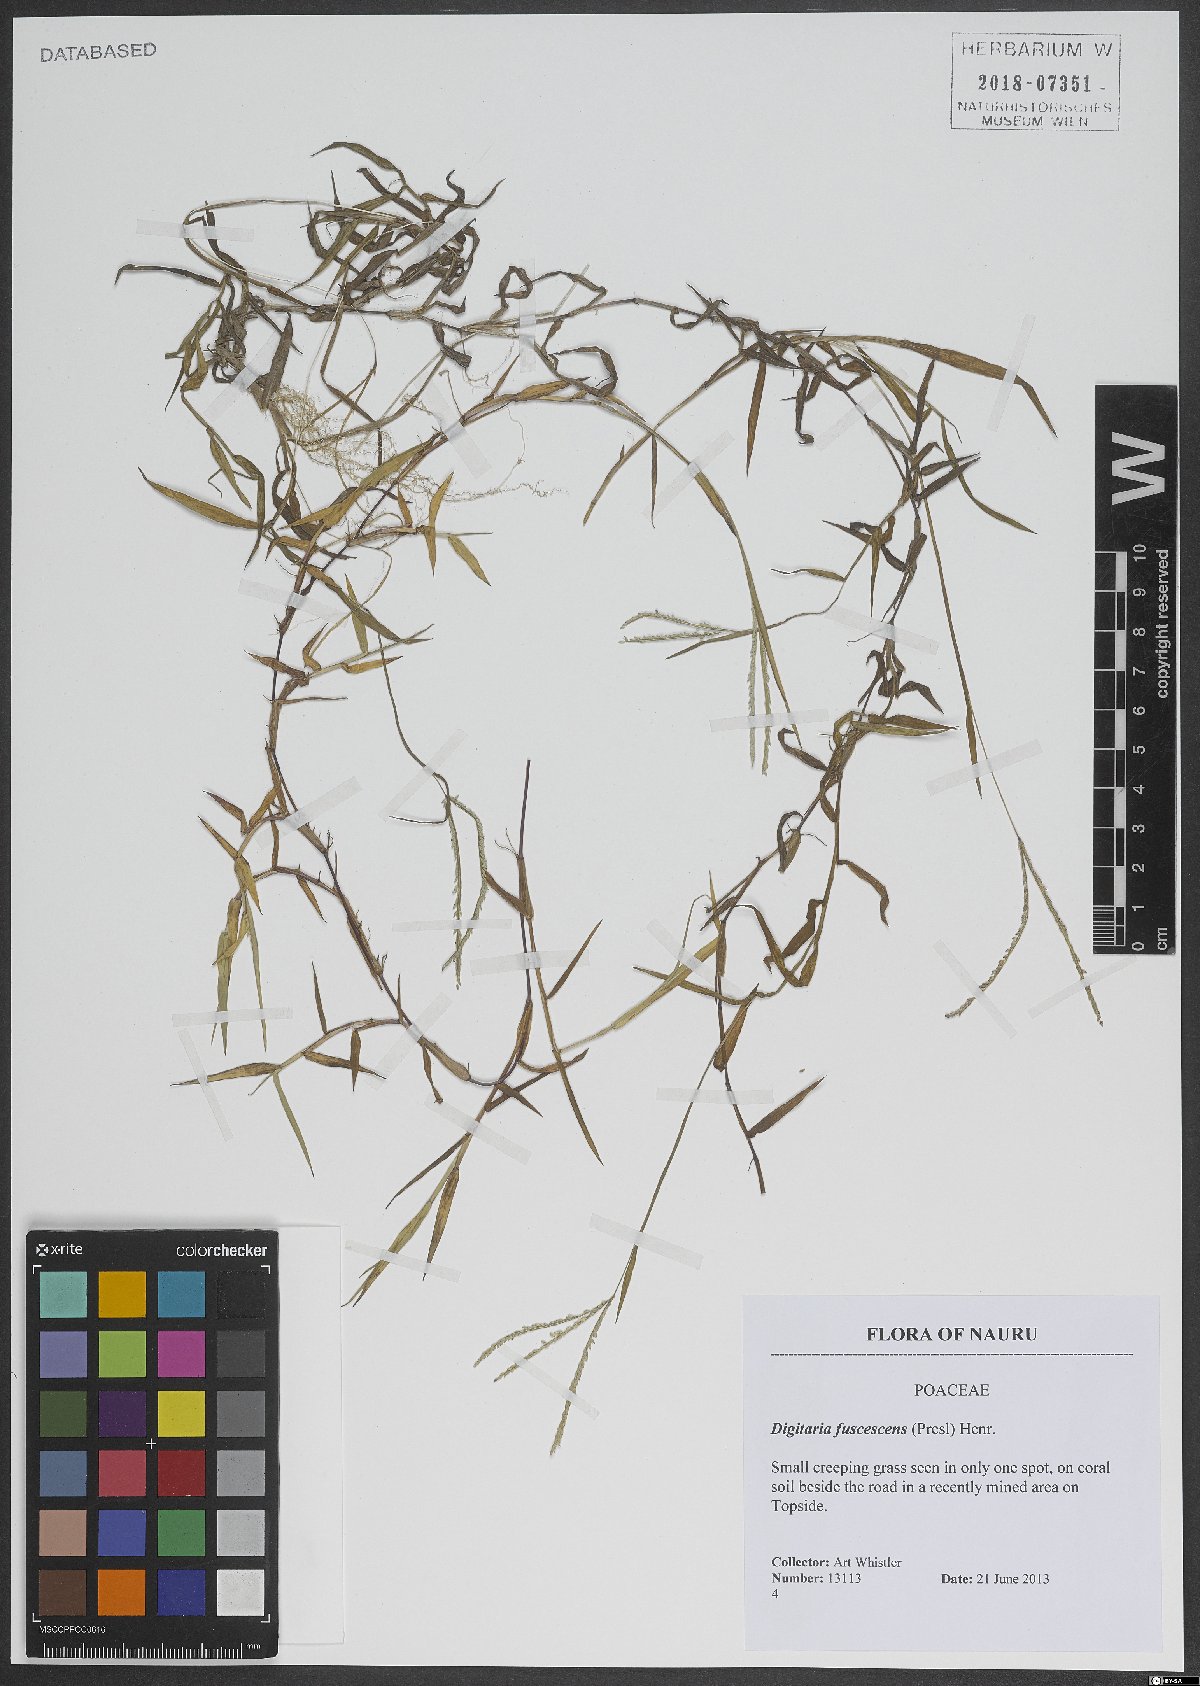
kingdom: Plantae
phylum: Tracheophyta
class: Liliopsida
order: Poales
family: Poaceae
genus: Digitaria
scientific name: Digitaria fuscescens
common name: Yellow crabgrass
